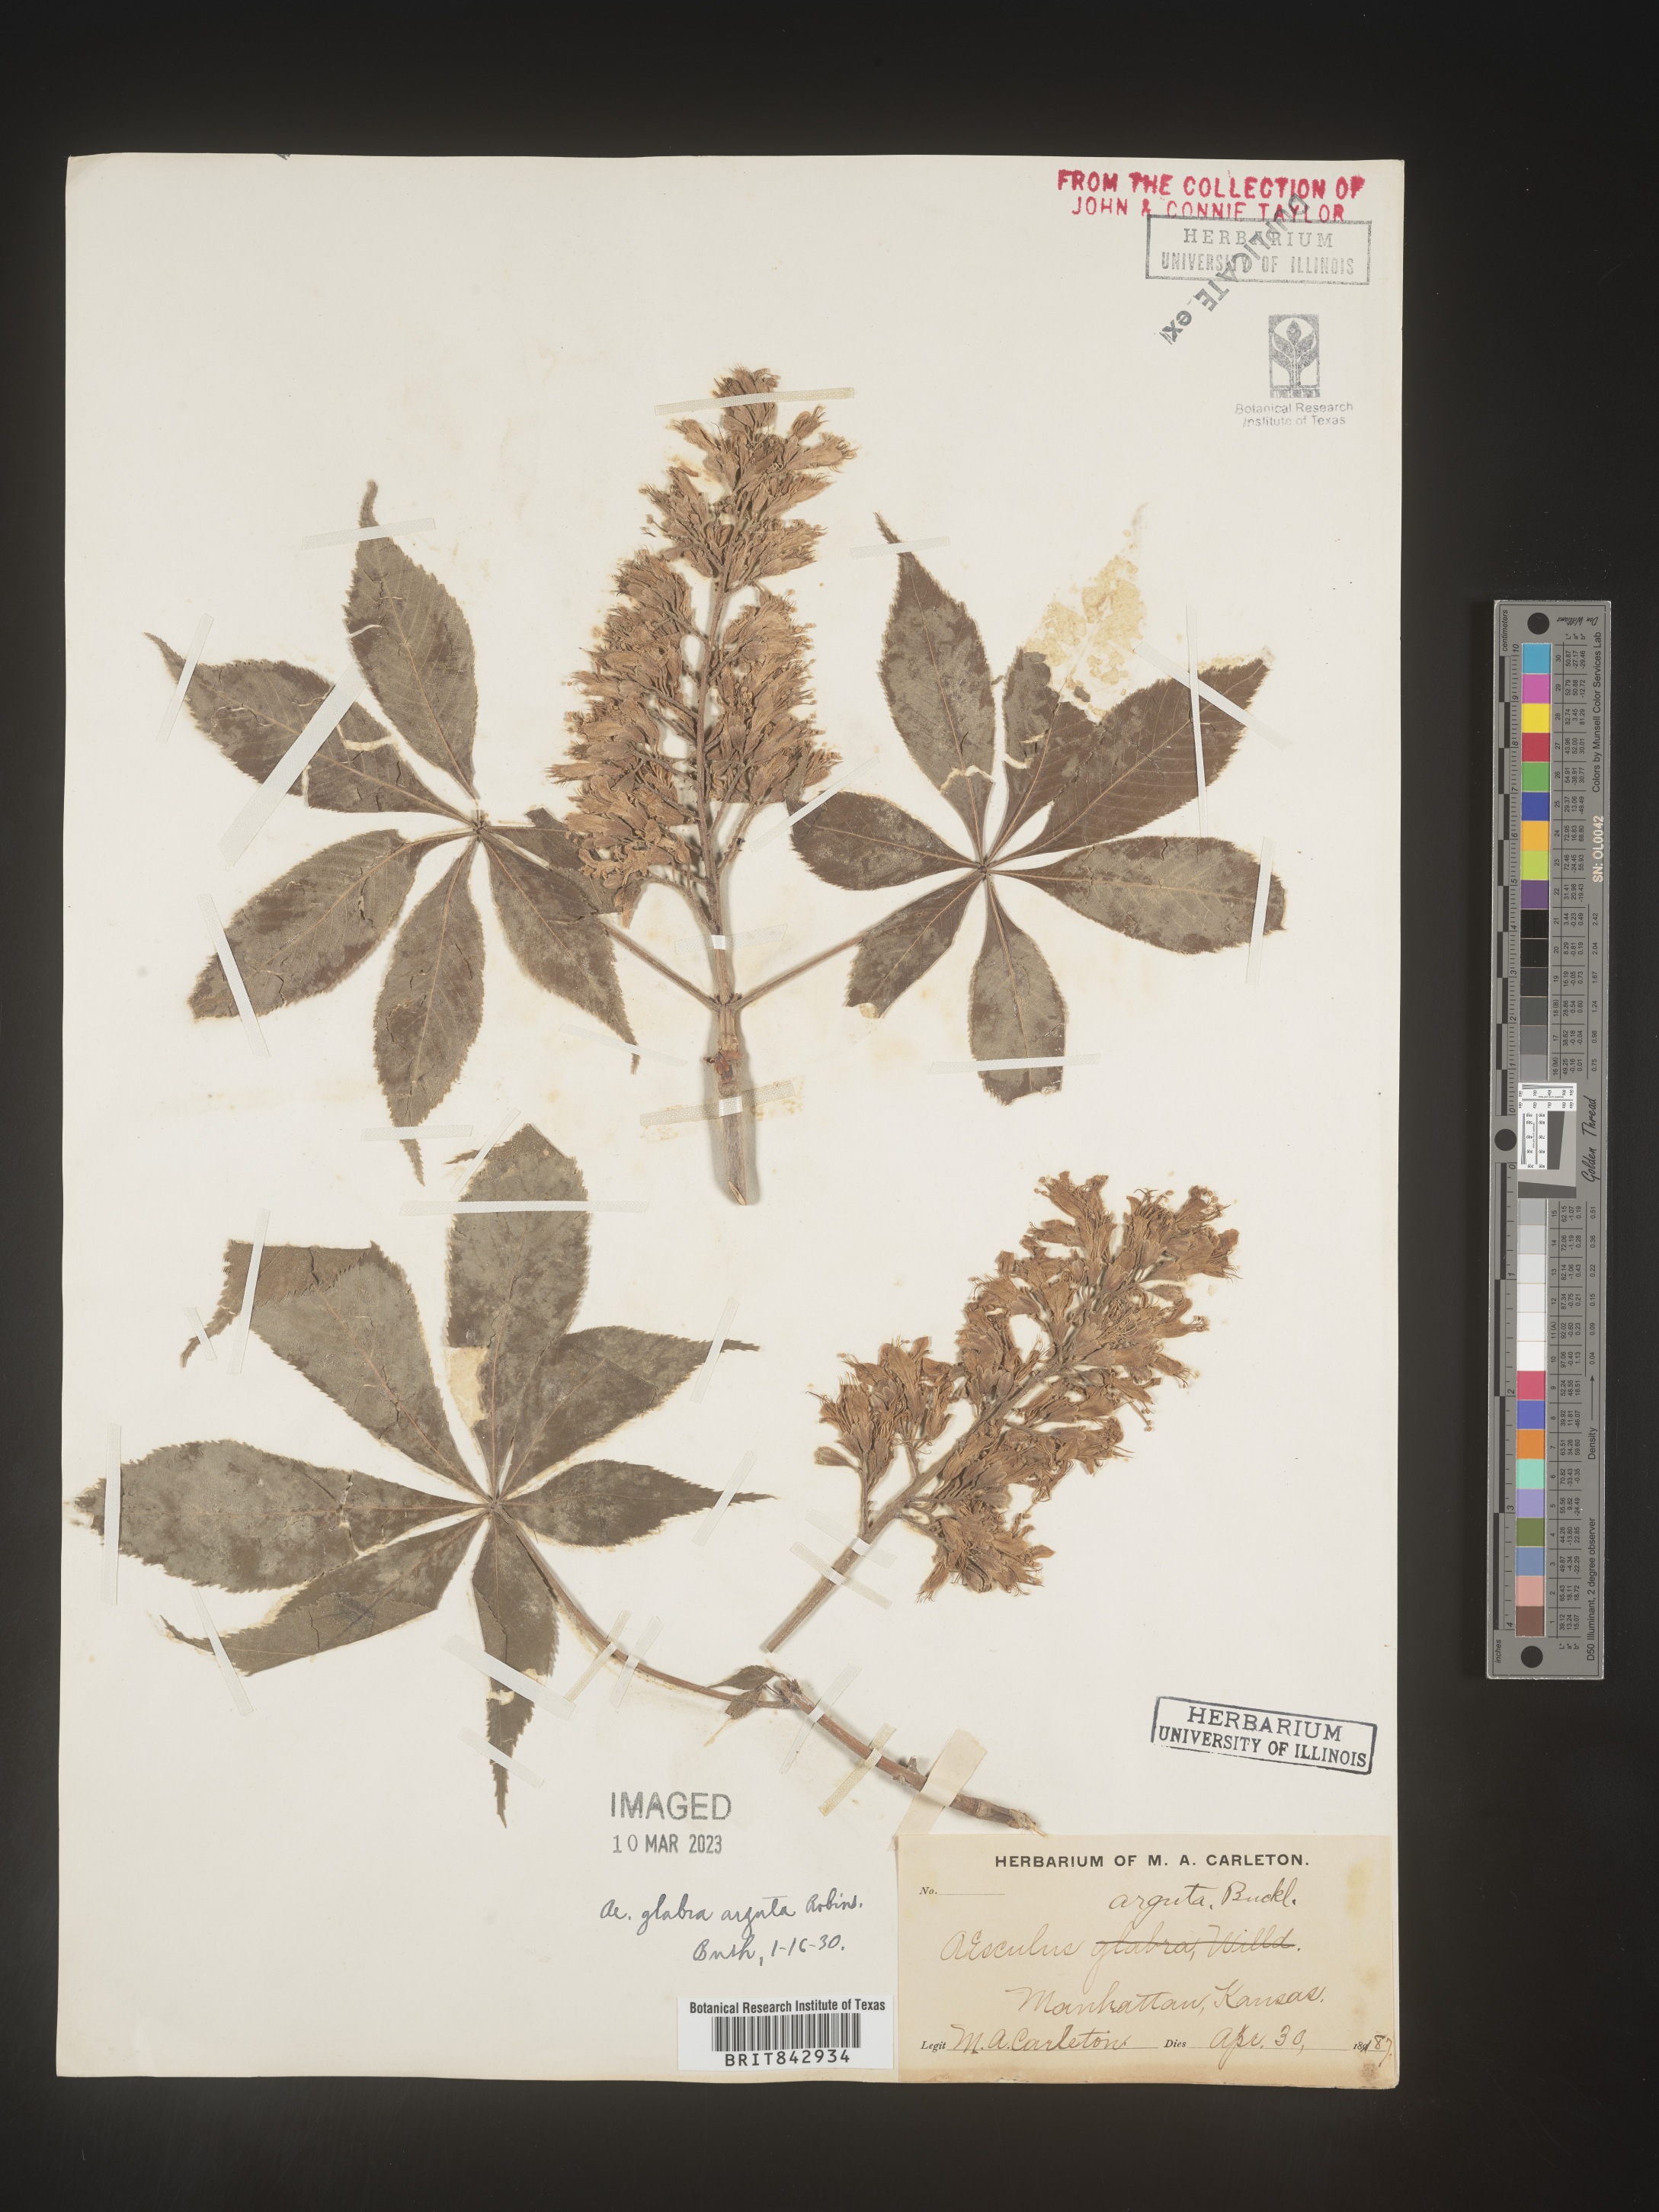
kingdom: Plantae
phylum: Tracheophyta
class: Magnoliopsida
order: Sapindales
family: Sapindaceae
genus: Aesculus
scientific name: Aesculus
